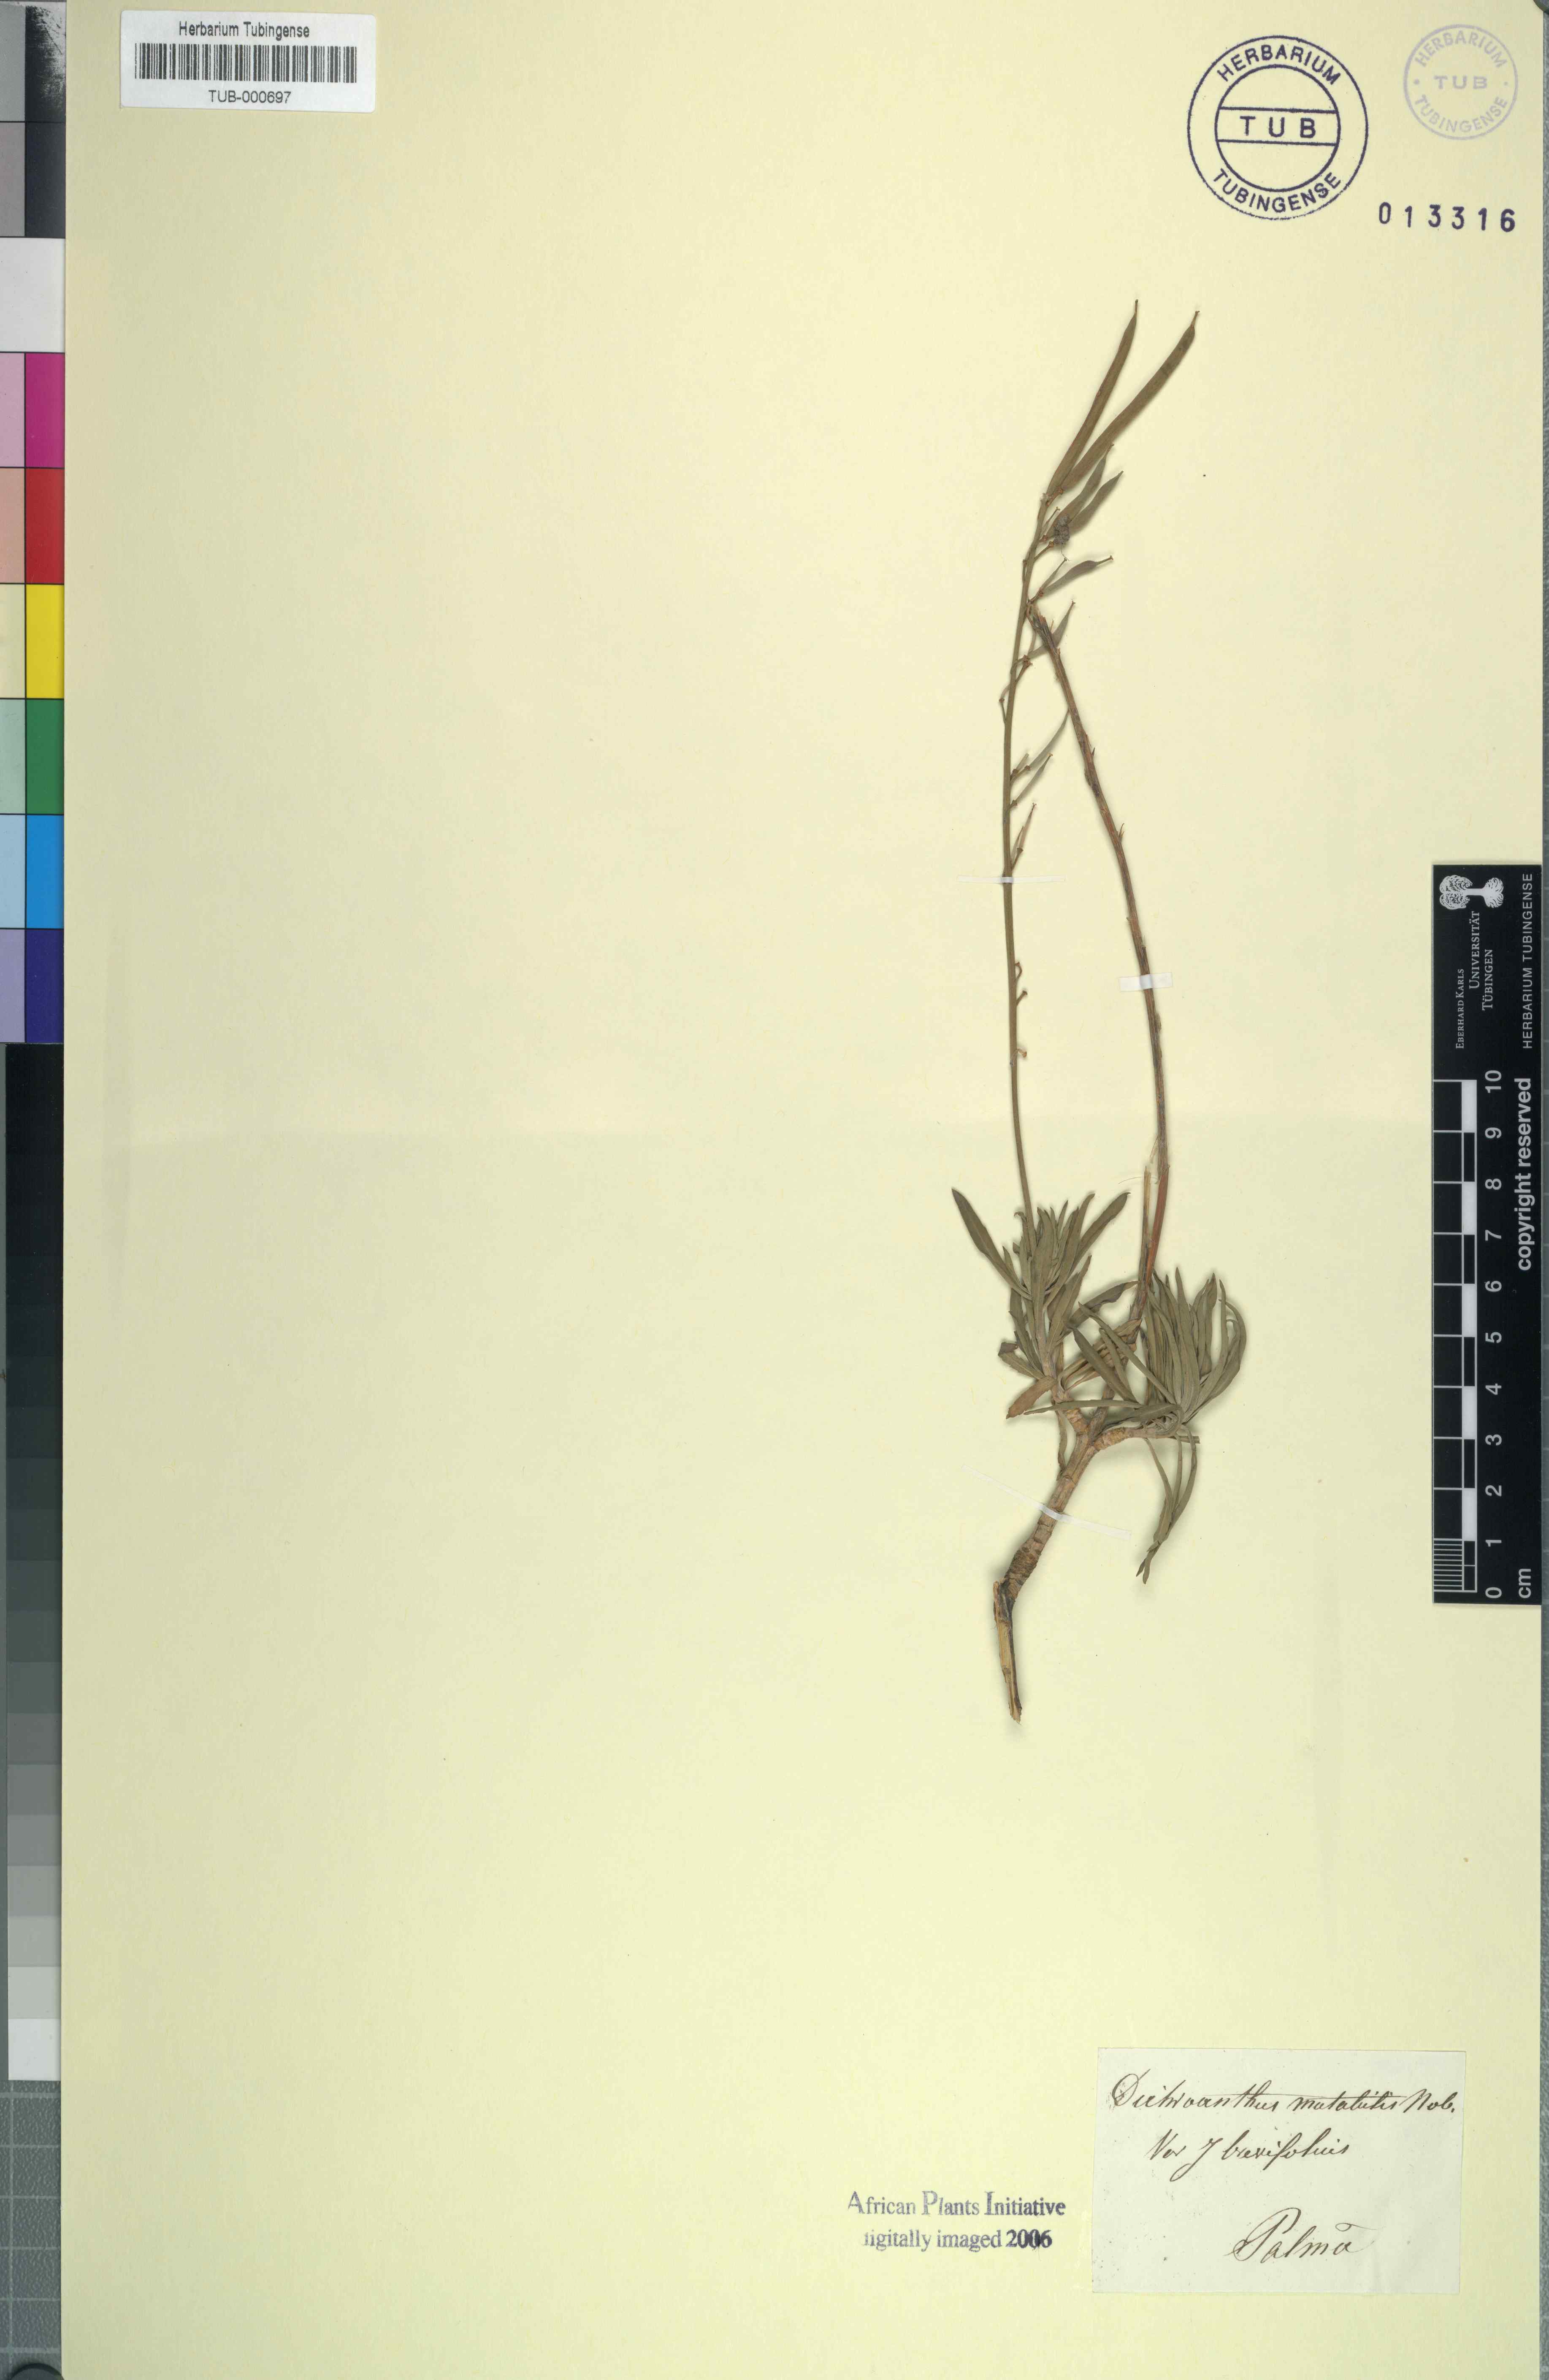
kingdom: Plantae
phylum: Tracheophyta
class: Magnoliopsida
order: Brassicales
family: Brassicaceae
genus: Erysimum
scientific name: Erysimum bicolor
